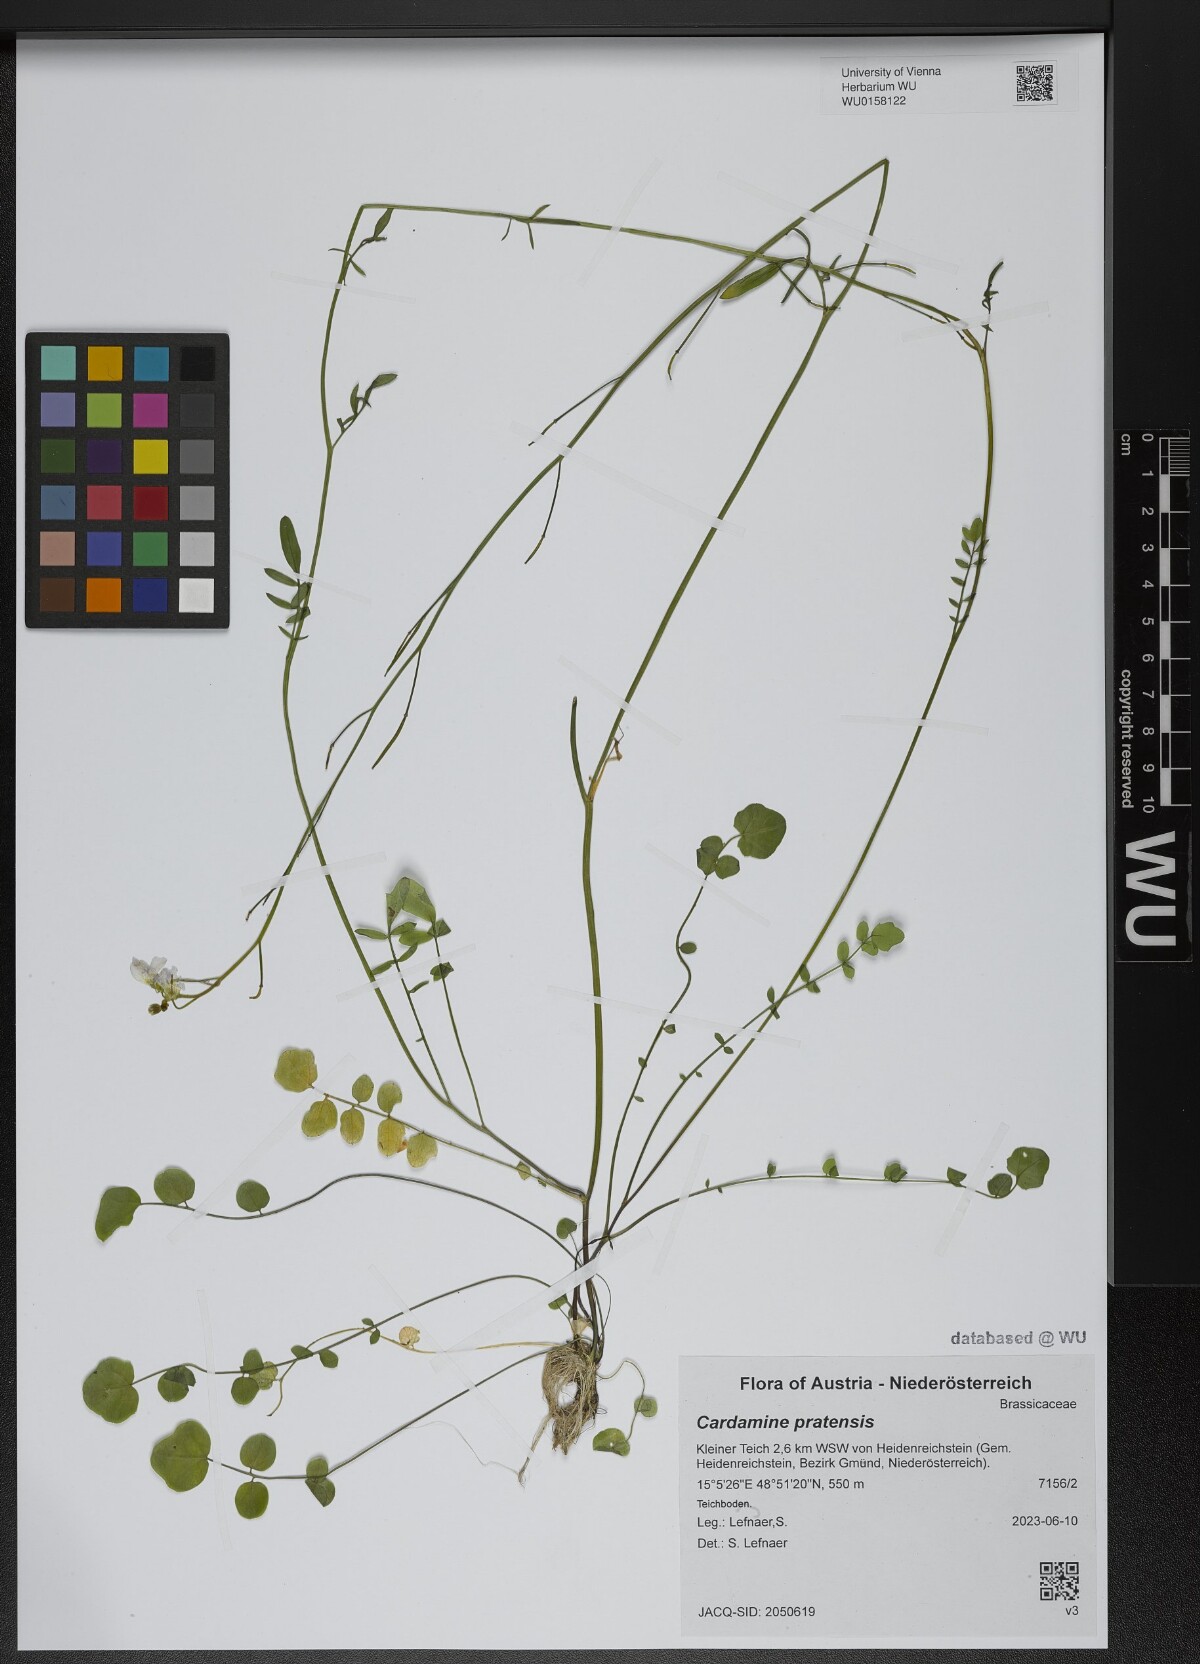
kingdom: Plantae
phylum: Tracheophyta
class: Magnoliopsida
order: Brassicales
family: Brassicaceae
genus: Cardamine
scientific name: Cardamine pratensis
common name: Cuckoo flower
